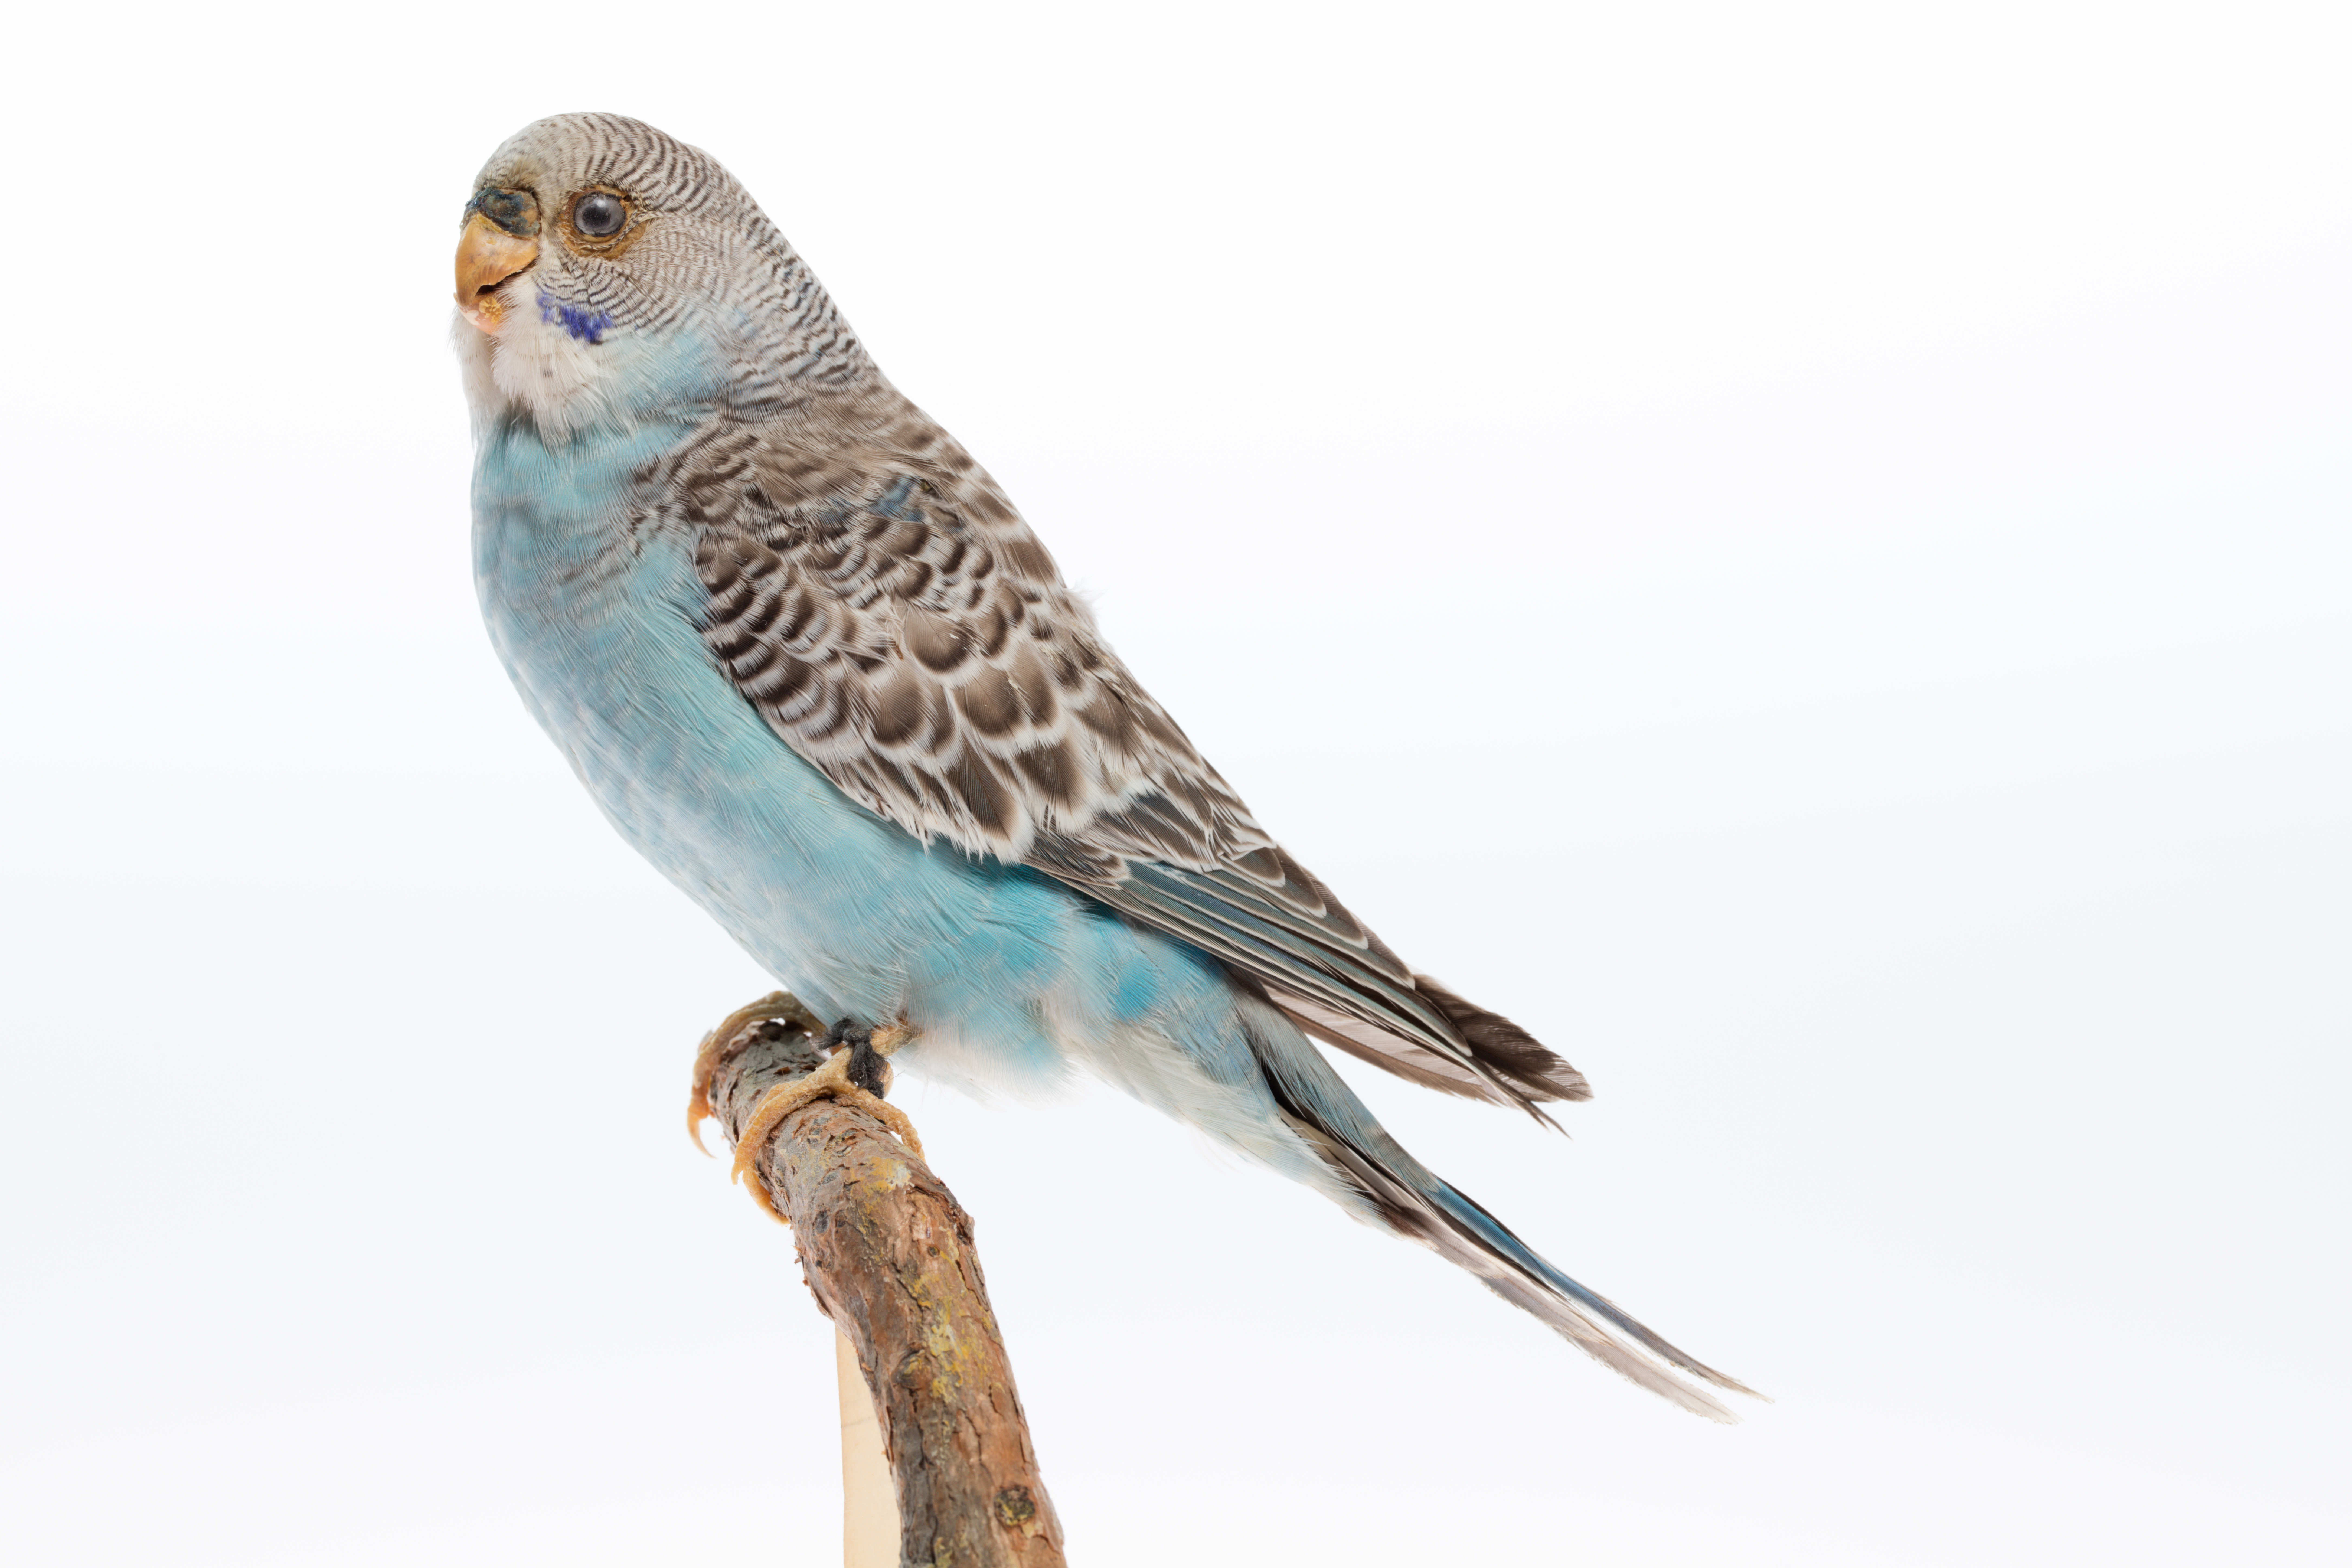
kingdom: Animalia
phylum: Chordata
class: Aves
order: Psittaciformes
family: Psittacidae
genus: Melopsittacus
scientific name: Melopsittacus undulatus
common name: Budgerigar
